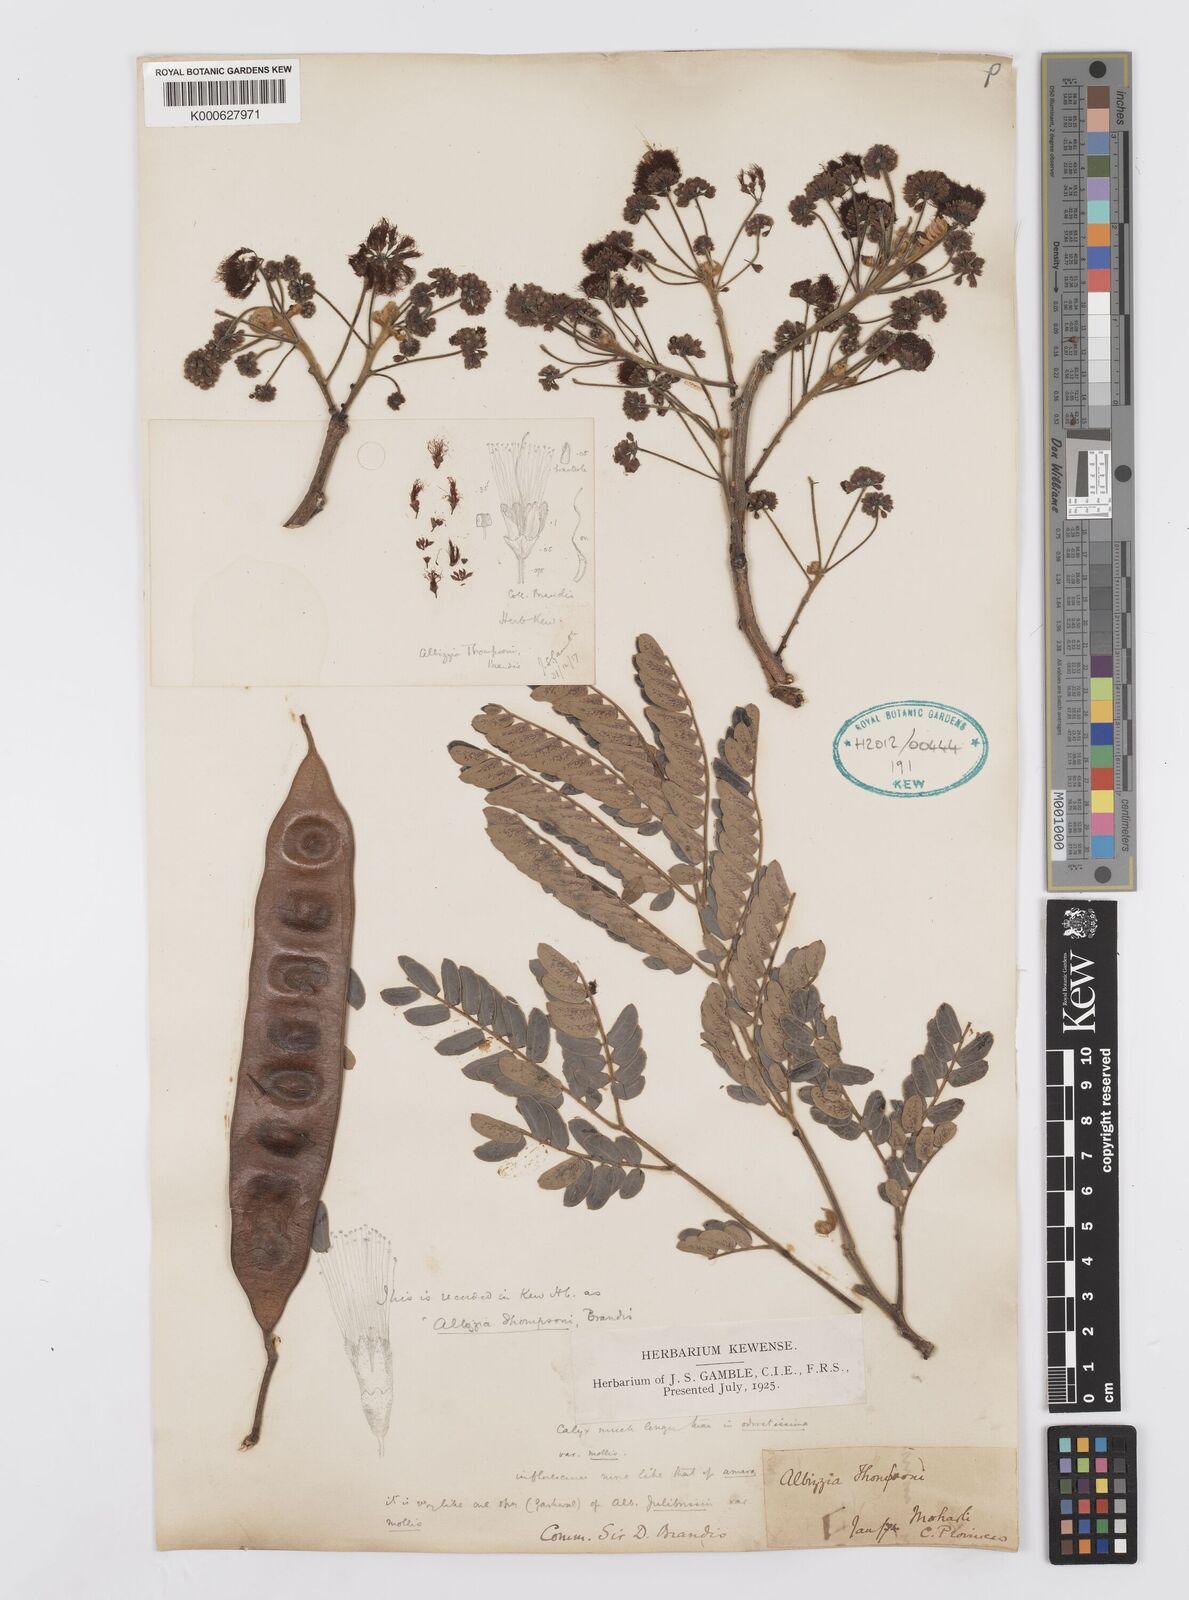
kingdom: Plantae
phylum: Tracheophyta
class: Magnoliopsida
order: Fabales
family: Fabaceae
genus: Albizia
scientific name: Albizia thompsonii
